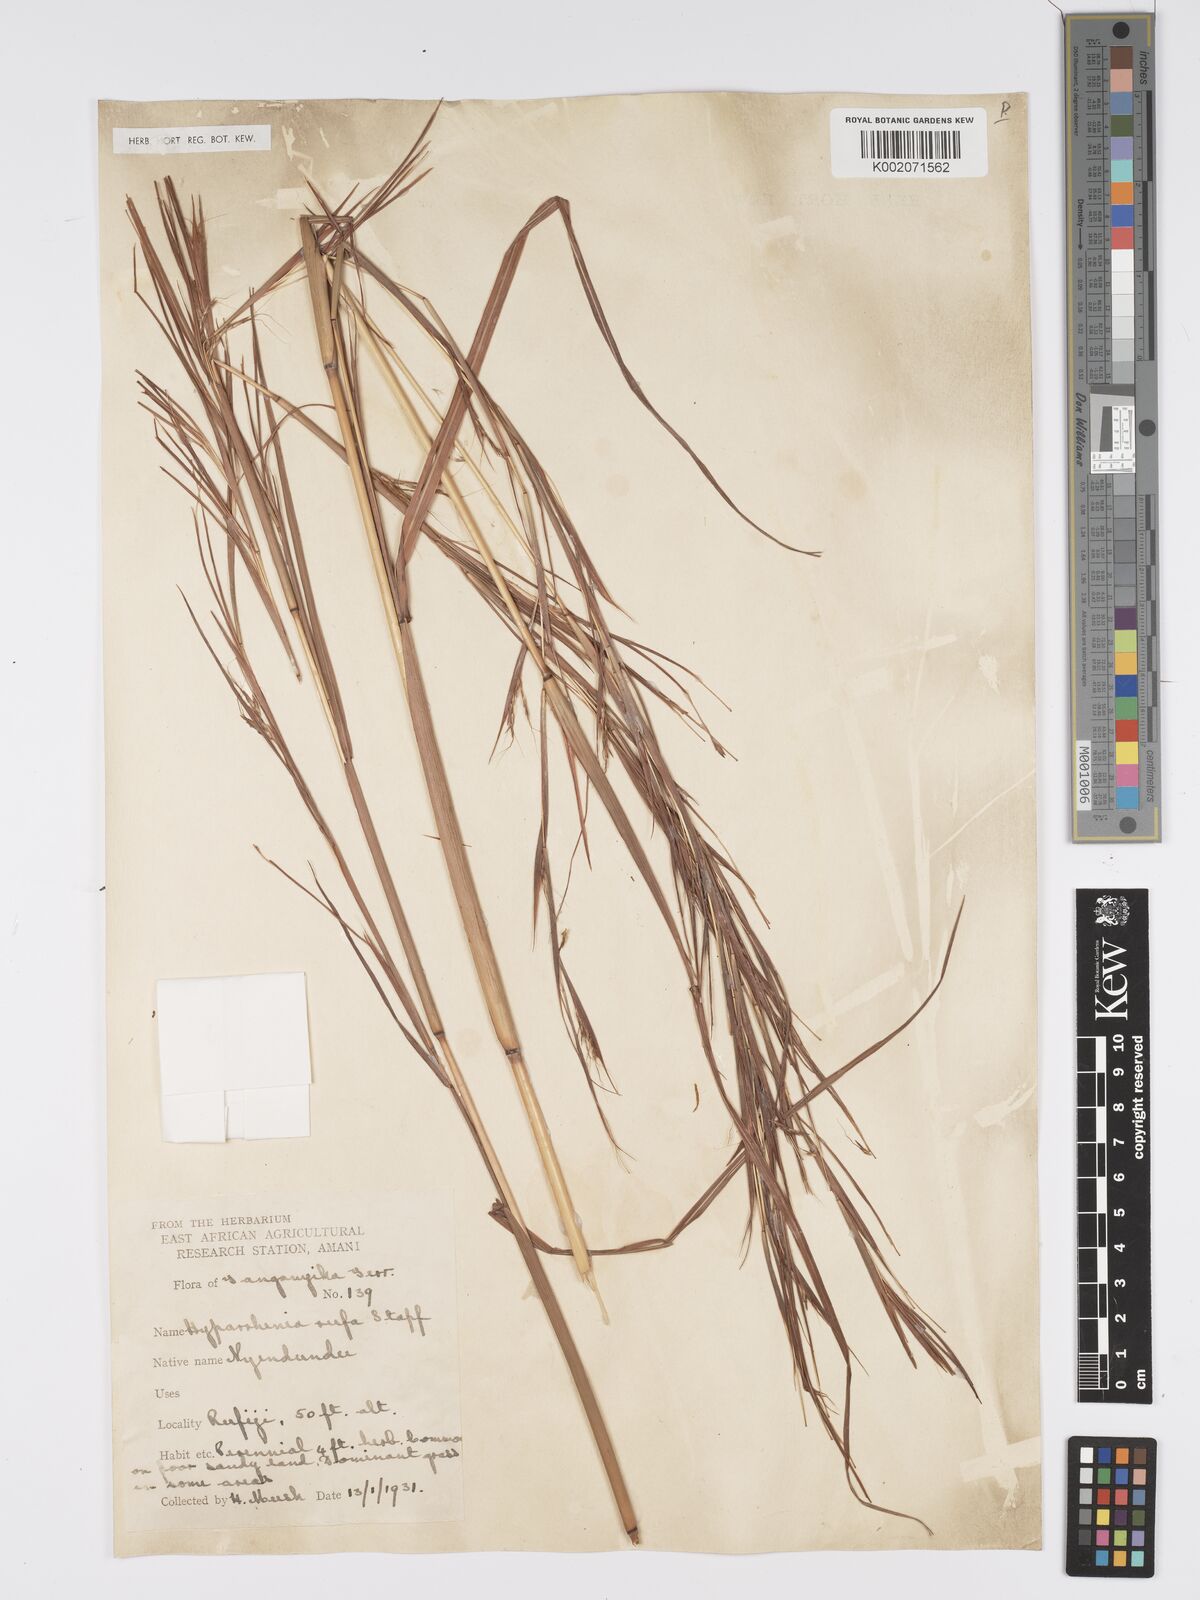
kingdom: Plantae
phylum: Tracheophyta
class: Liliopsida
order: Poales
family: Poaceae
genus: Hyparrhenia
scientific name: Hyparrhenia rufa
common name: Jaraguagrass
